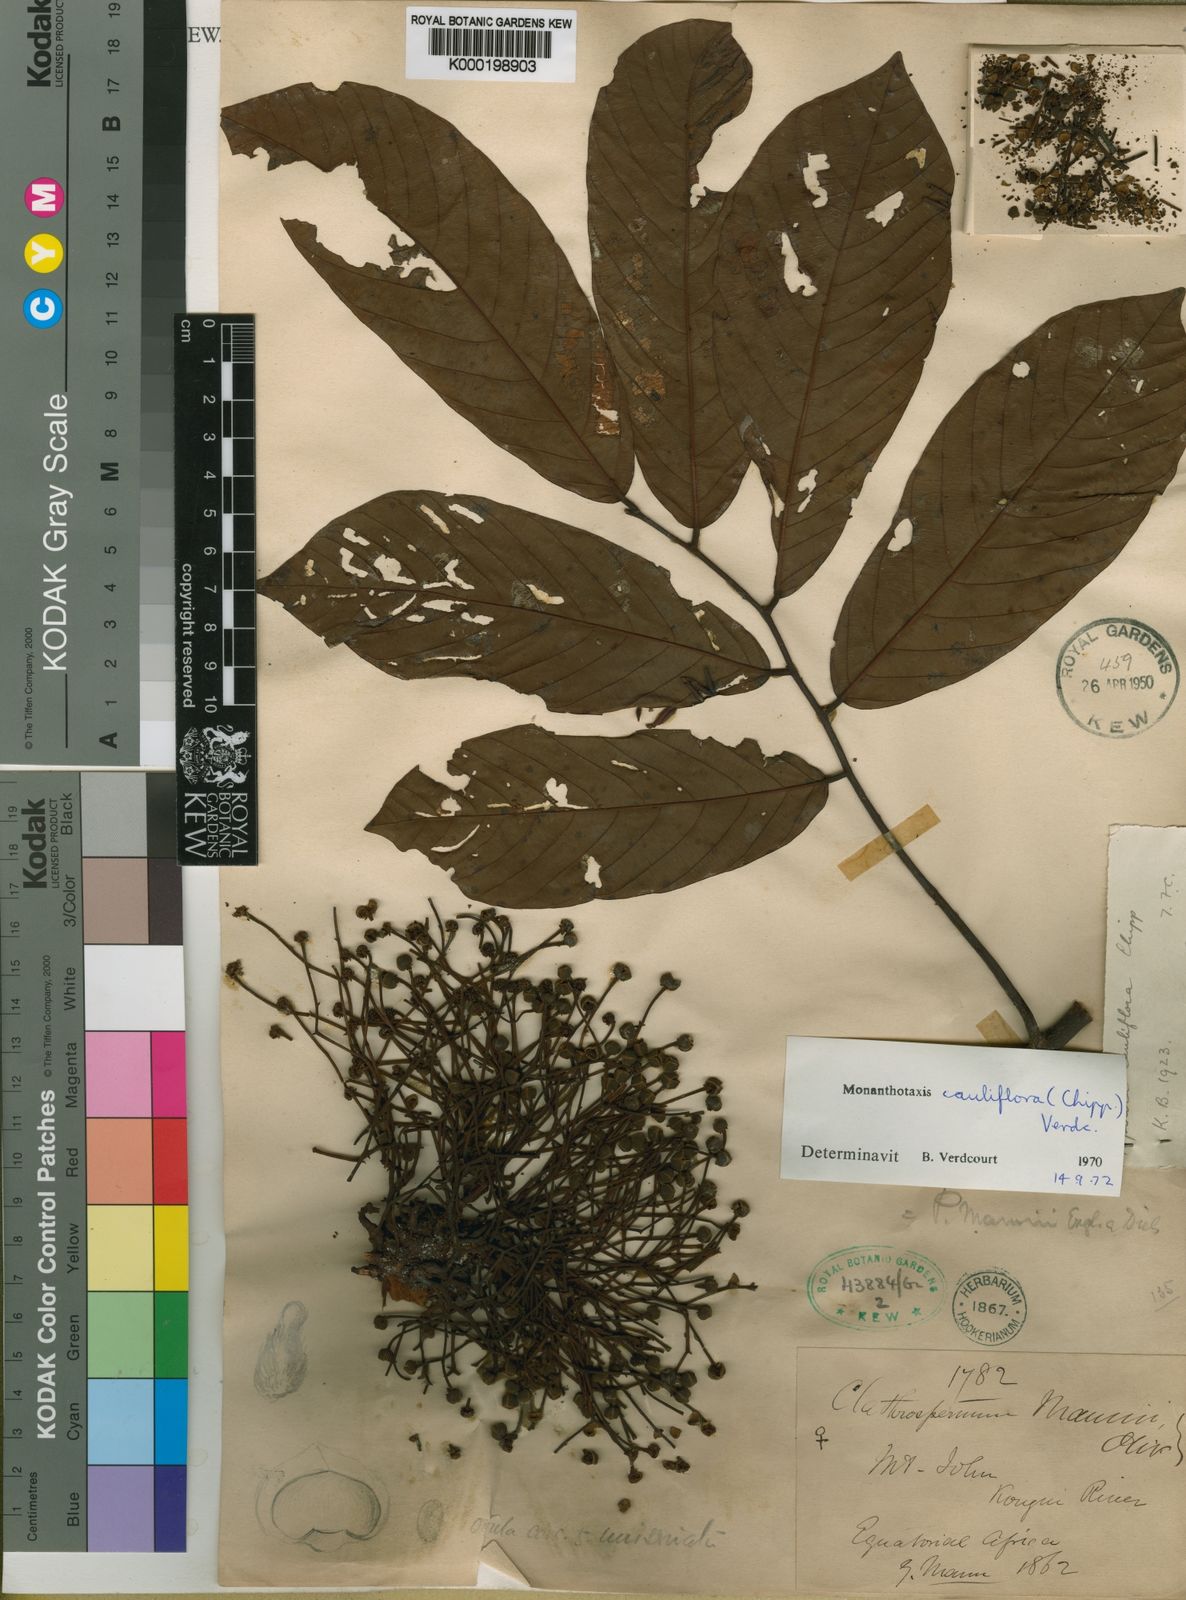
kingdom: Plantae
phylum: Tracheophyta
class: Magnoliopsida
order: Magnoliales
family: Annonaceae
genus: Monanthotaxis
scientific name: Monanthotaxis cauliflora
